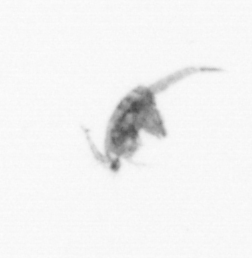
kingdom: Animalia
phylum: Arthropoda
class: Copepoda
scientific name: Copepoda
